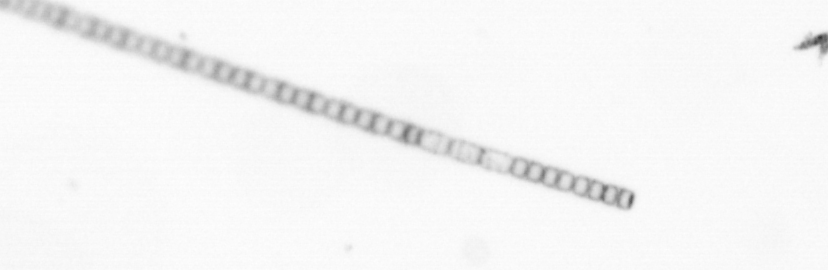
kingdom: Chromista
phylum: Ochrophyta
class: Bacillariophyceae
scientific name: Bacillariophyceae
